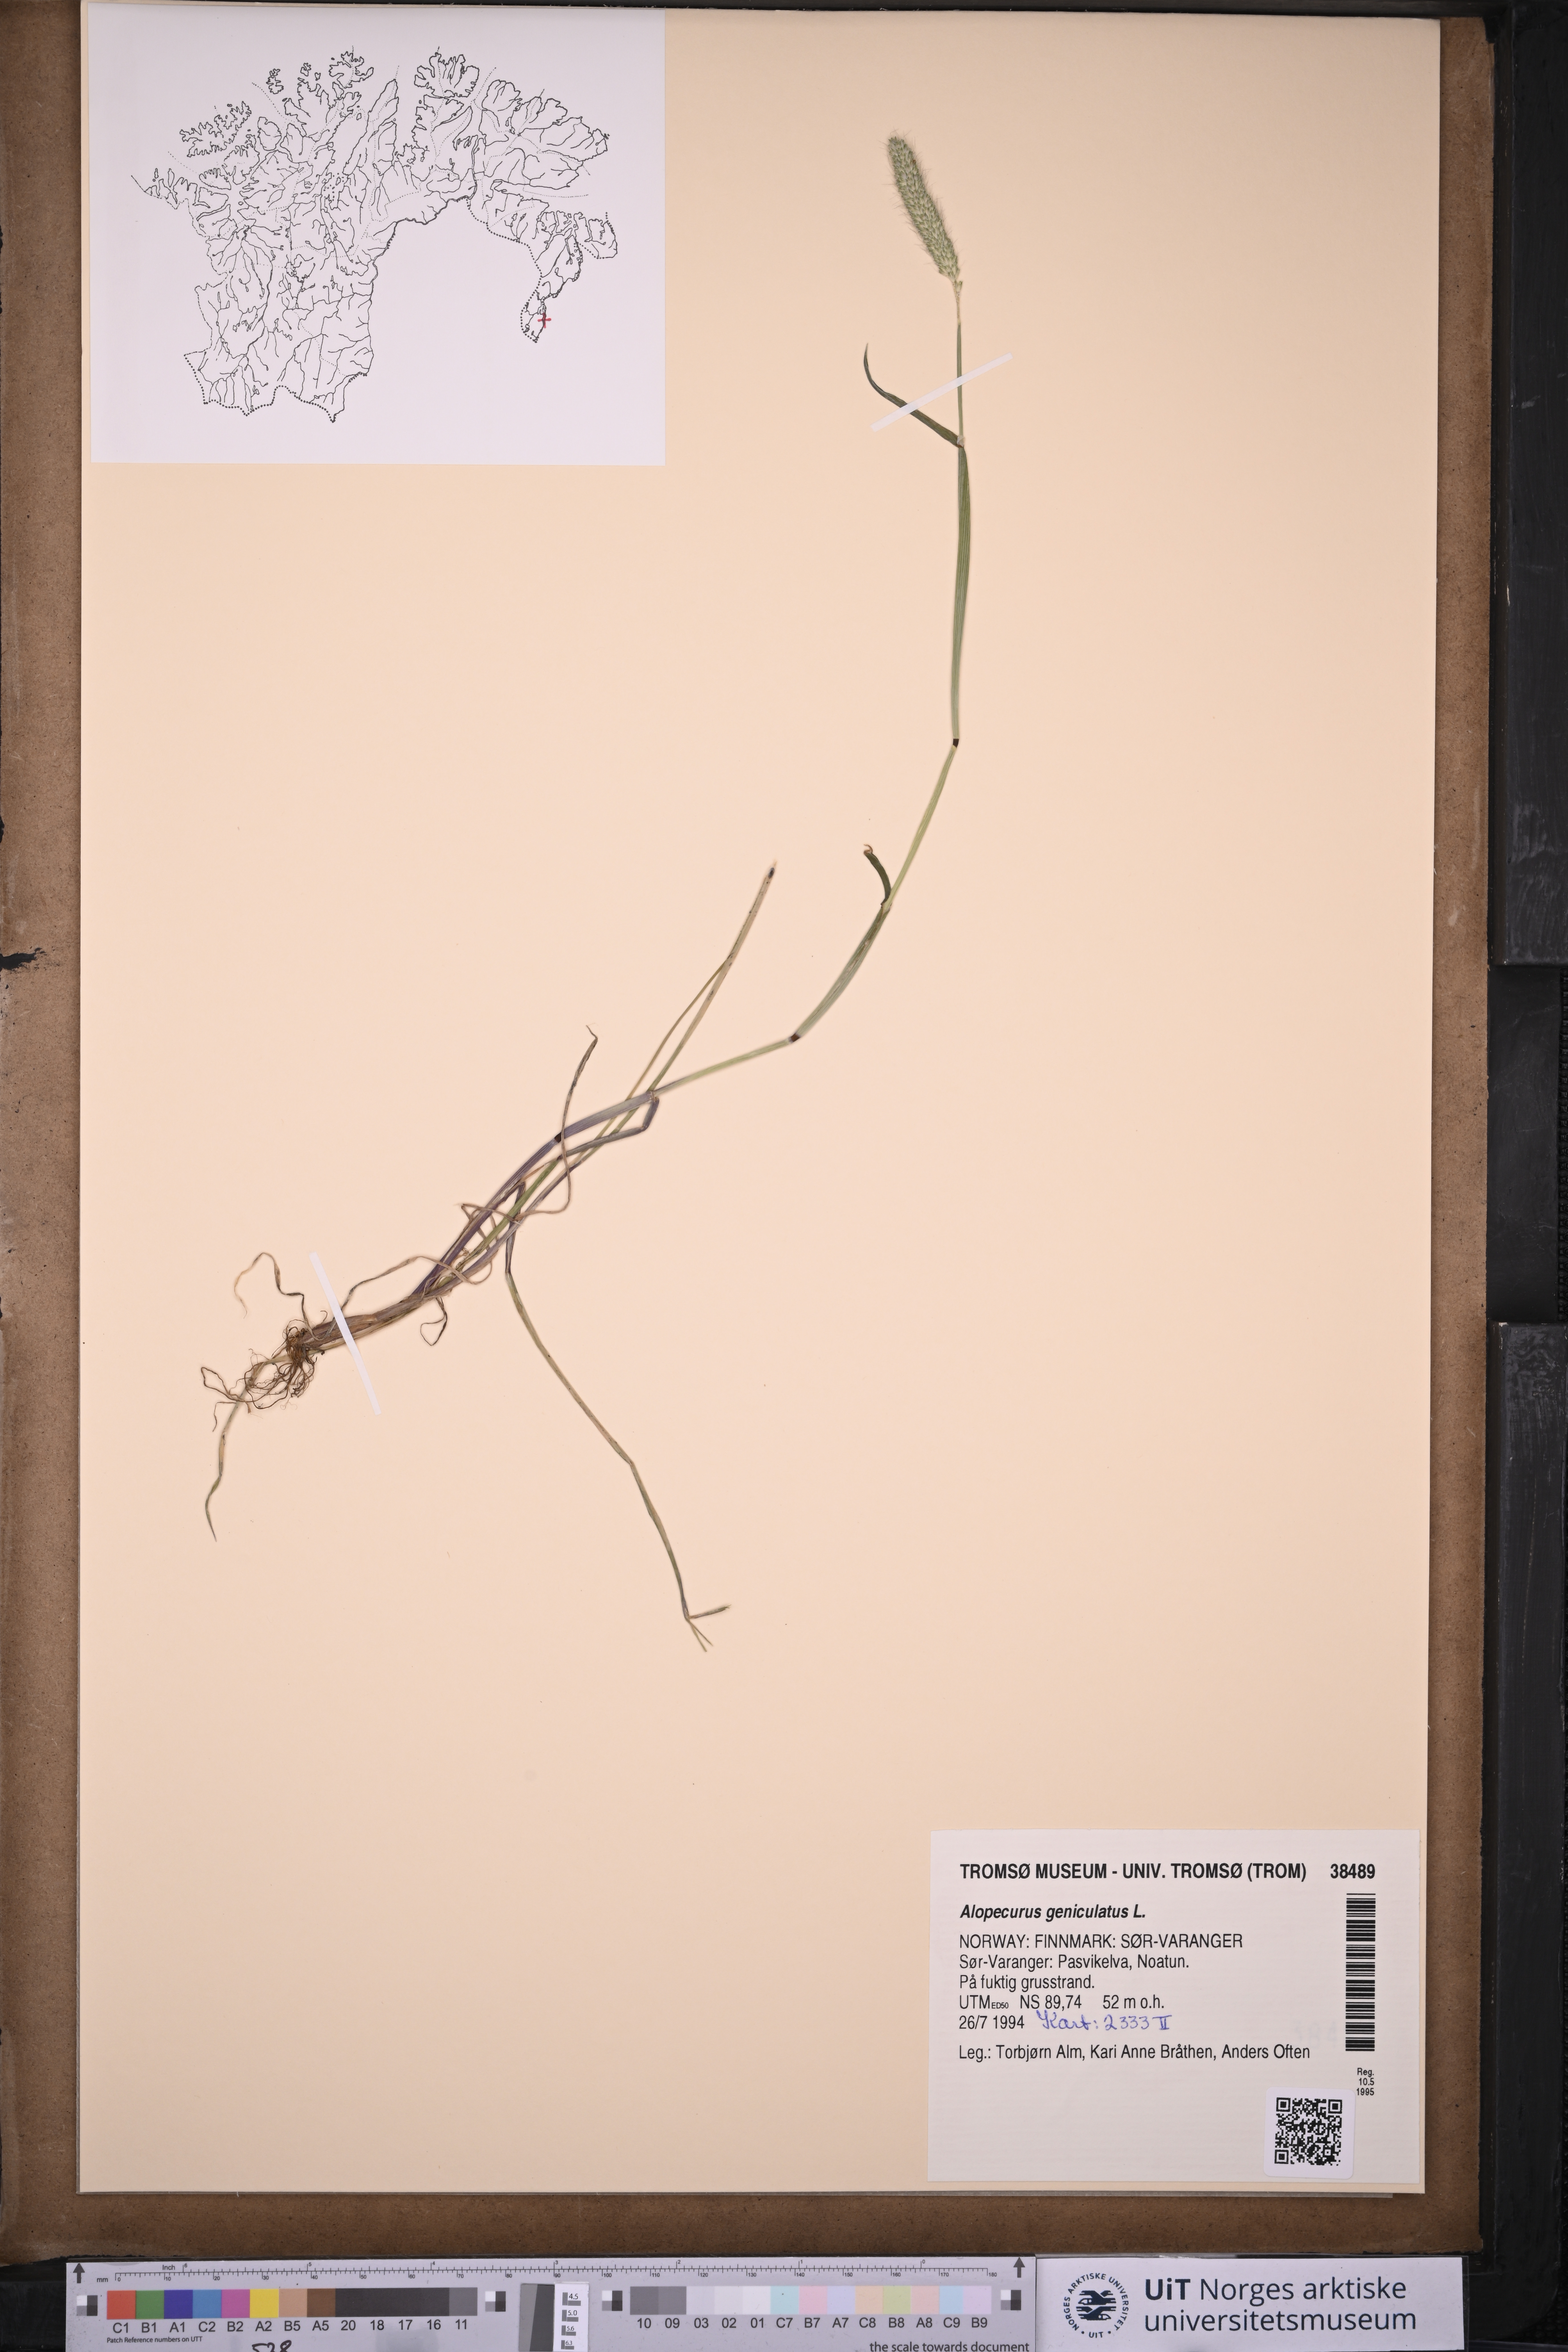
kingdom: Plantae
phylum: Tracheophyta
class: Liliopsida
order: Poales
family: Poaceae
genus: Alopecurus
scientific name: Alopecurus geniculatus
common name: Water foxtail
